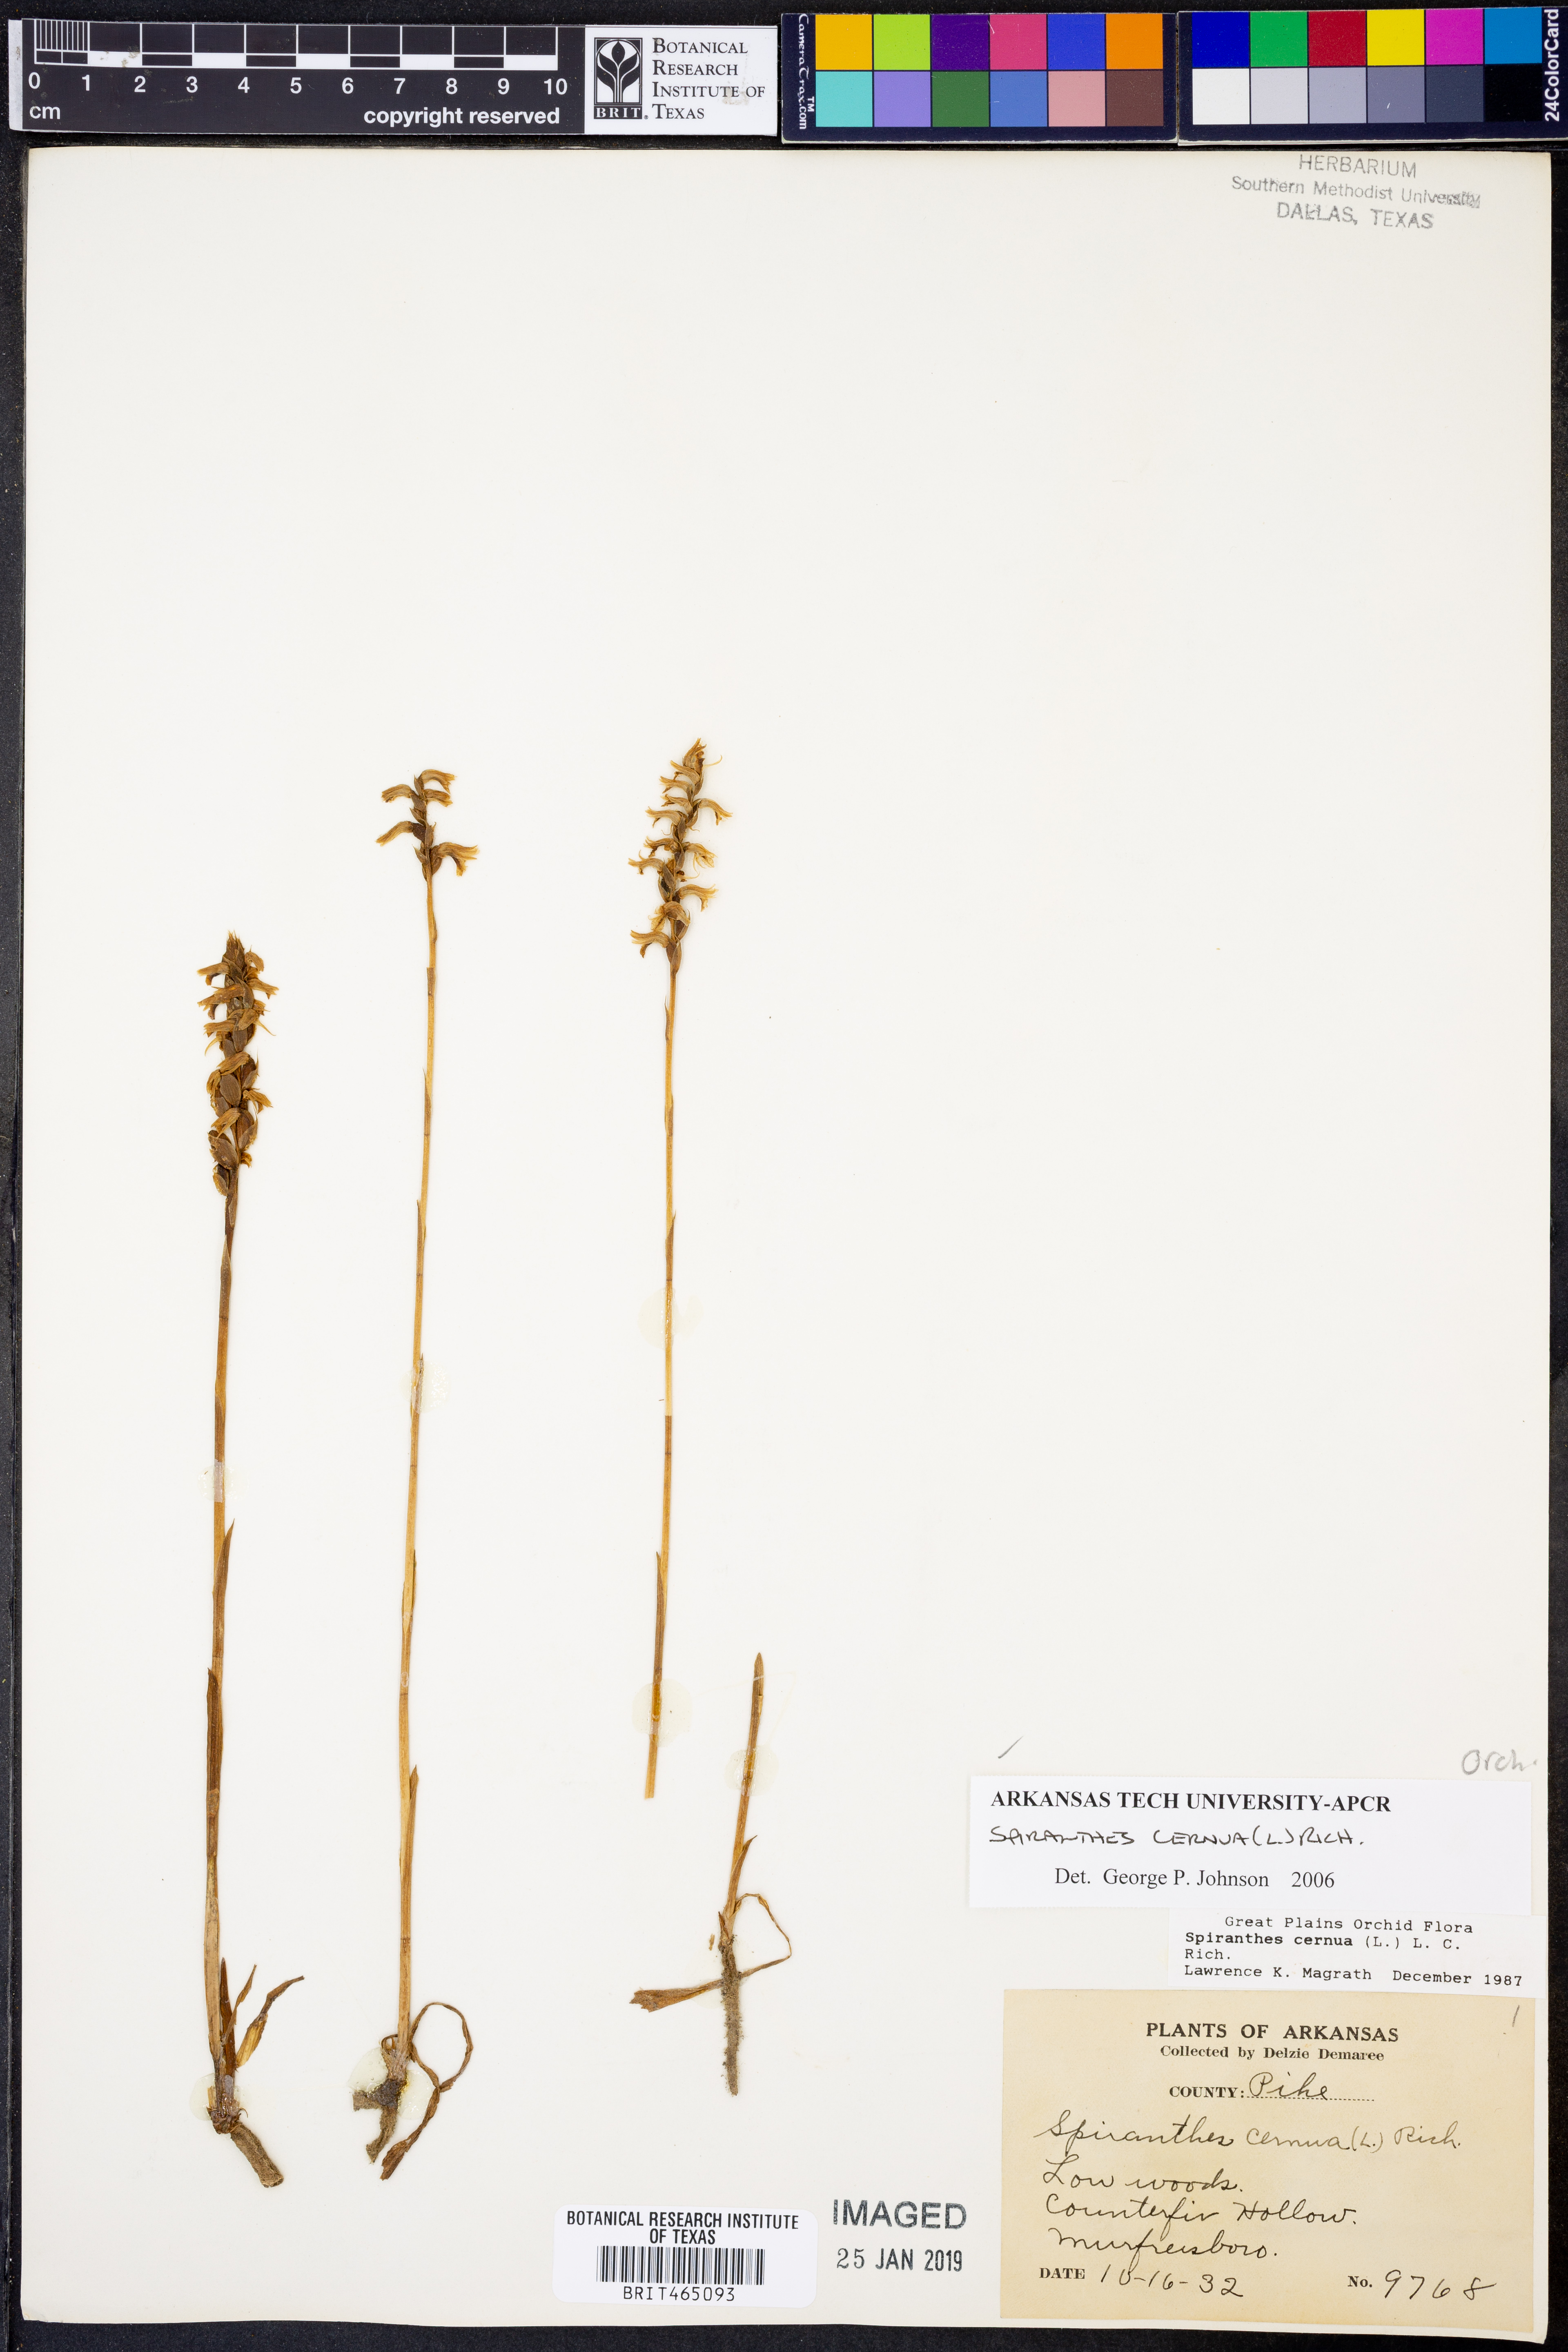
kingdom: Plantae
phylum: Tracheophyta
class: Liliopsida
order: Asparagales
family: Orchidaceae
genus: Spiranthes
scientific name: Spiranthes cernua
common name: Dropping ladies'-tresses
